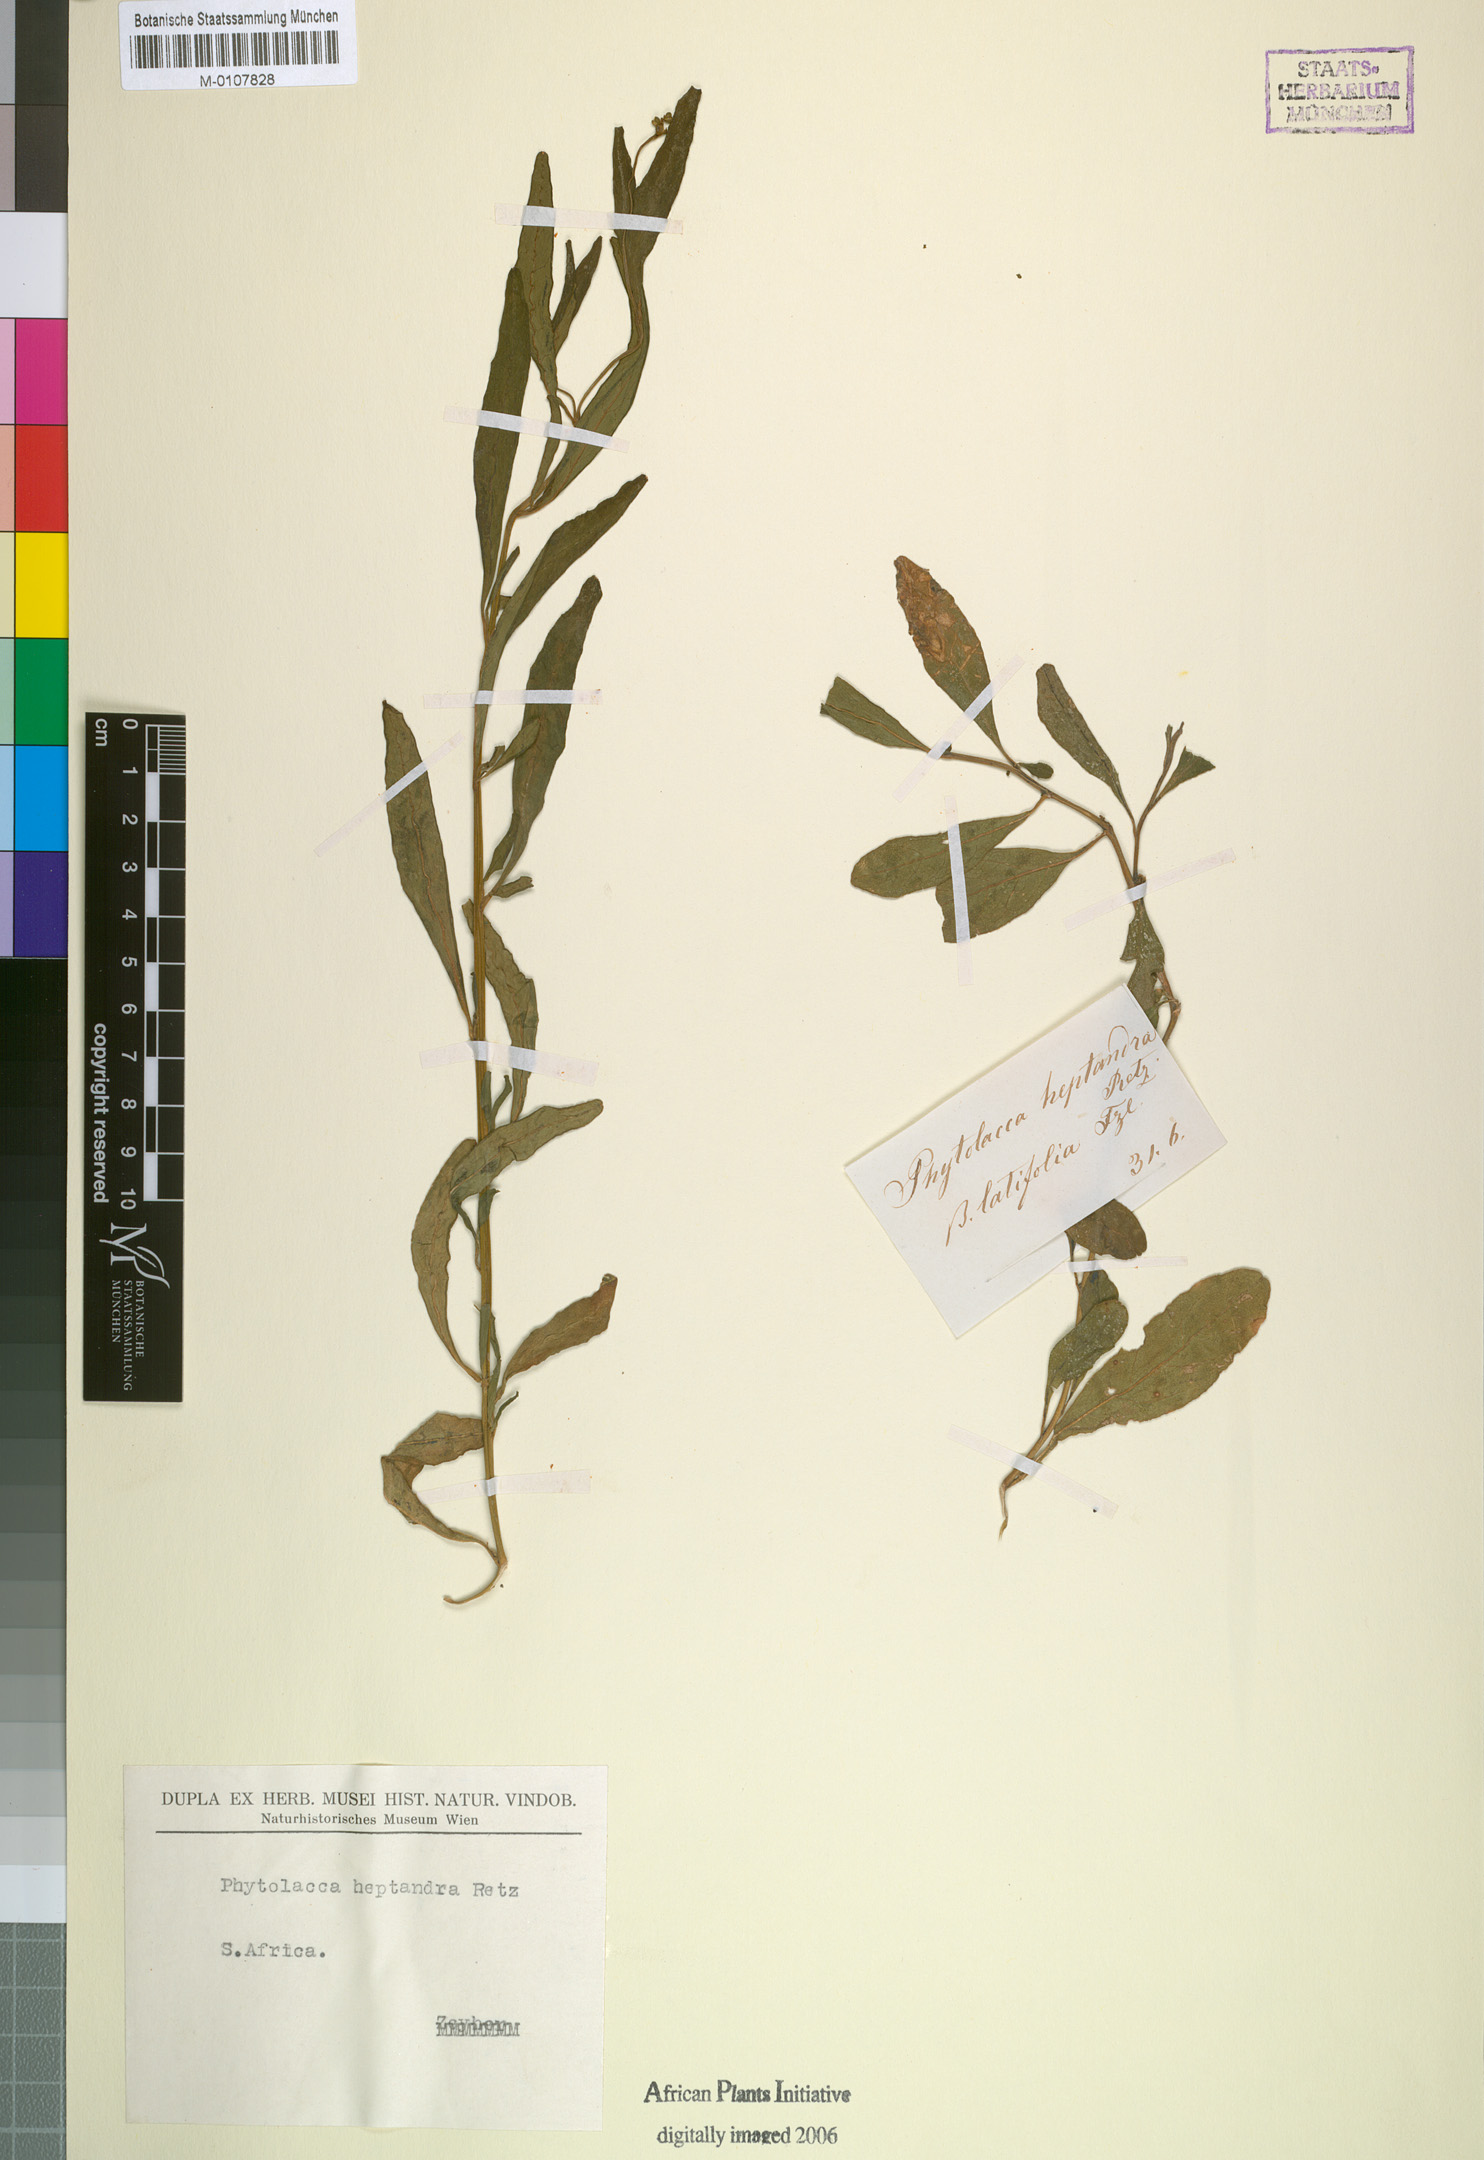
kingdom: Plantae
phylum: Tracheophyta
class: Magnoliopsida
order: Caryophyllales
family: Phytolaccaceae
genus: Phytolacca
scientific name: Phytolacca heptandra
